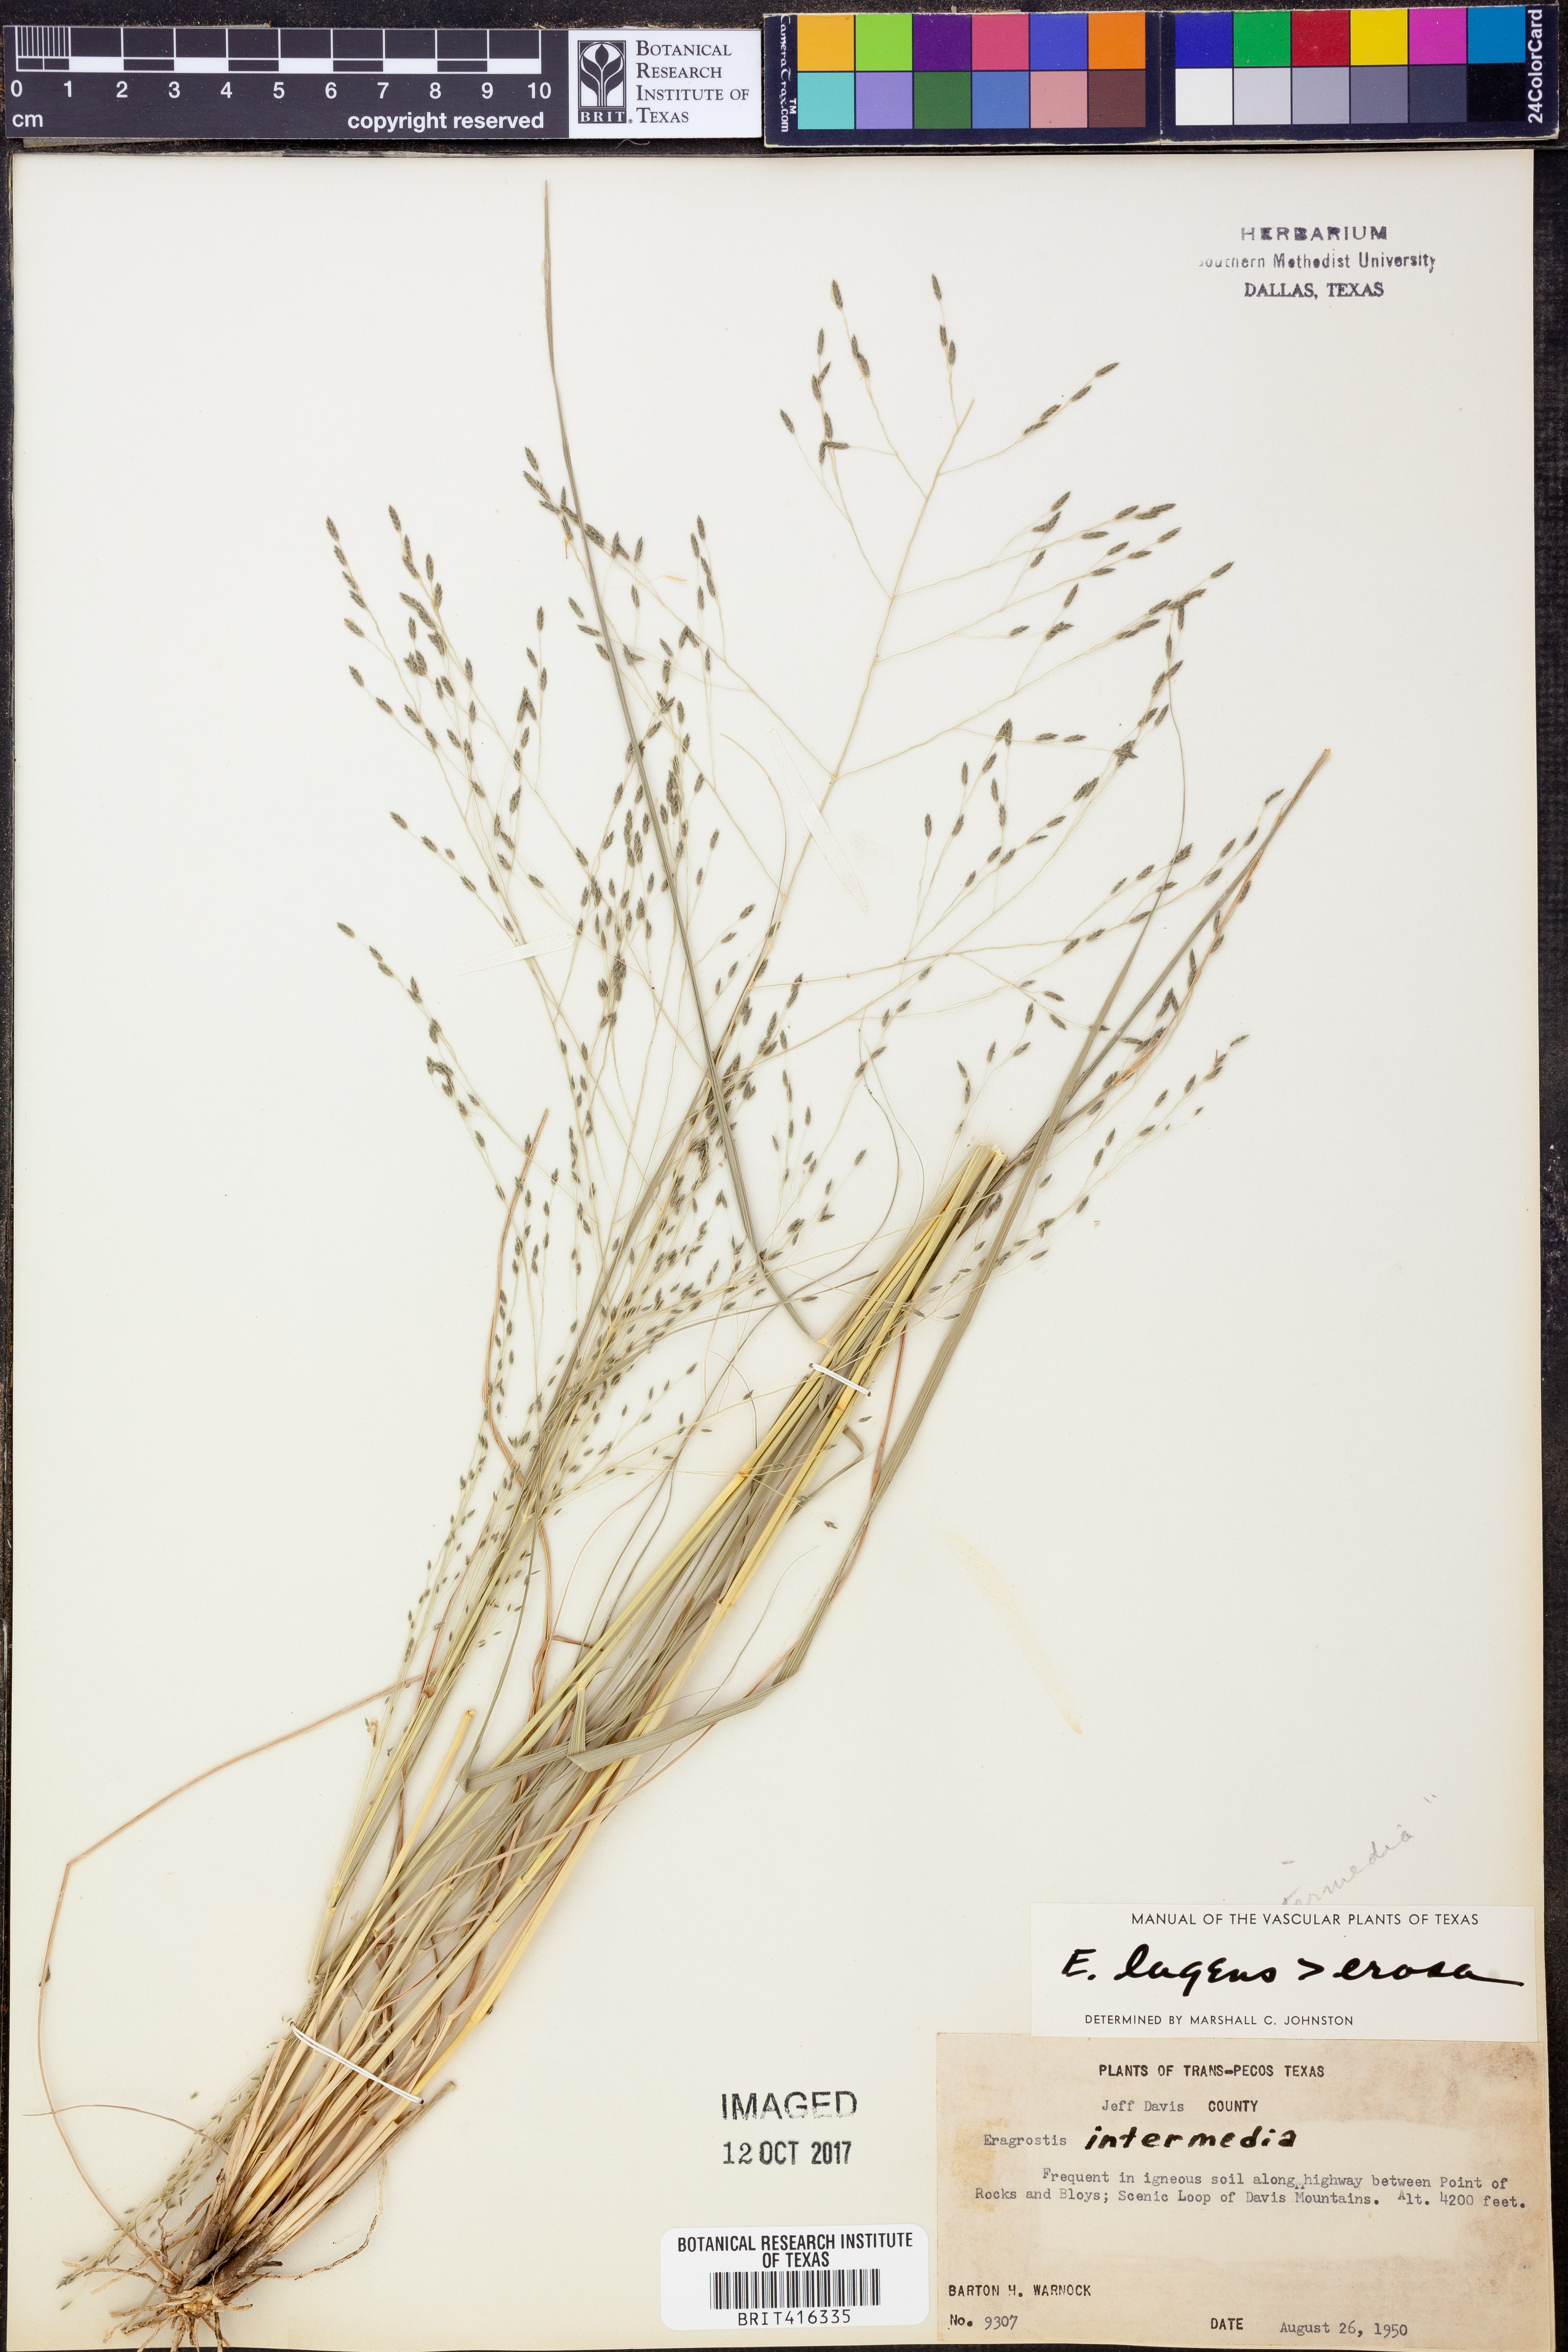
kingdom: Plantae
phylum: Tracheophyta
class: Liliopsida
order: Poales
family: Poaceae
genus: Eragrostis
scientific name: Eragrostis capillaris
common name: Hair-like lovegrass
